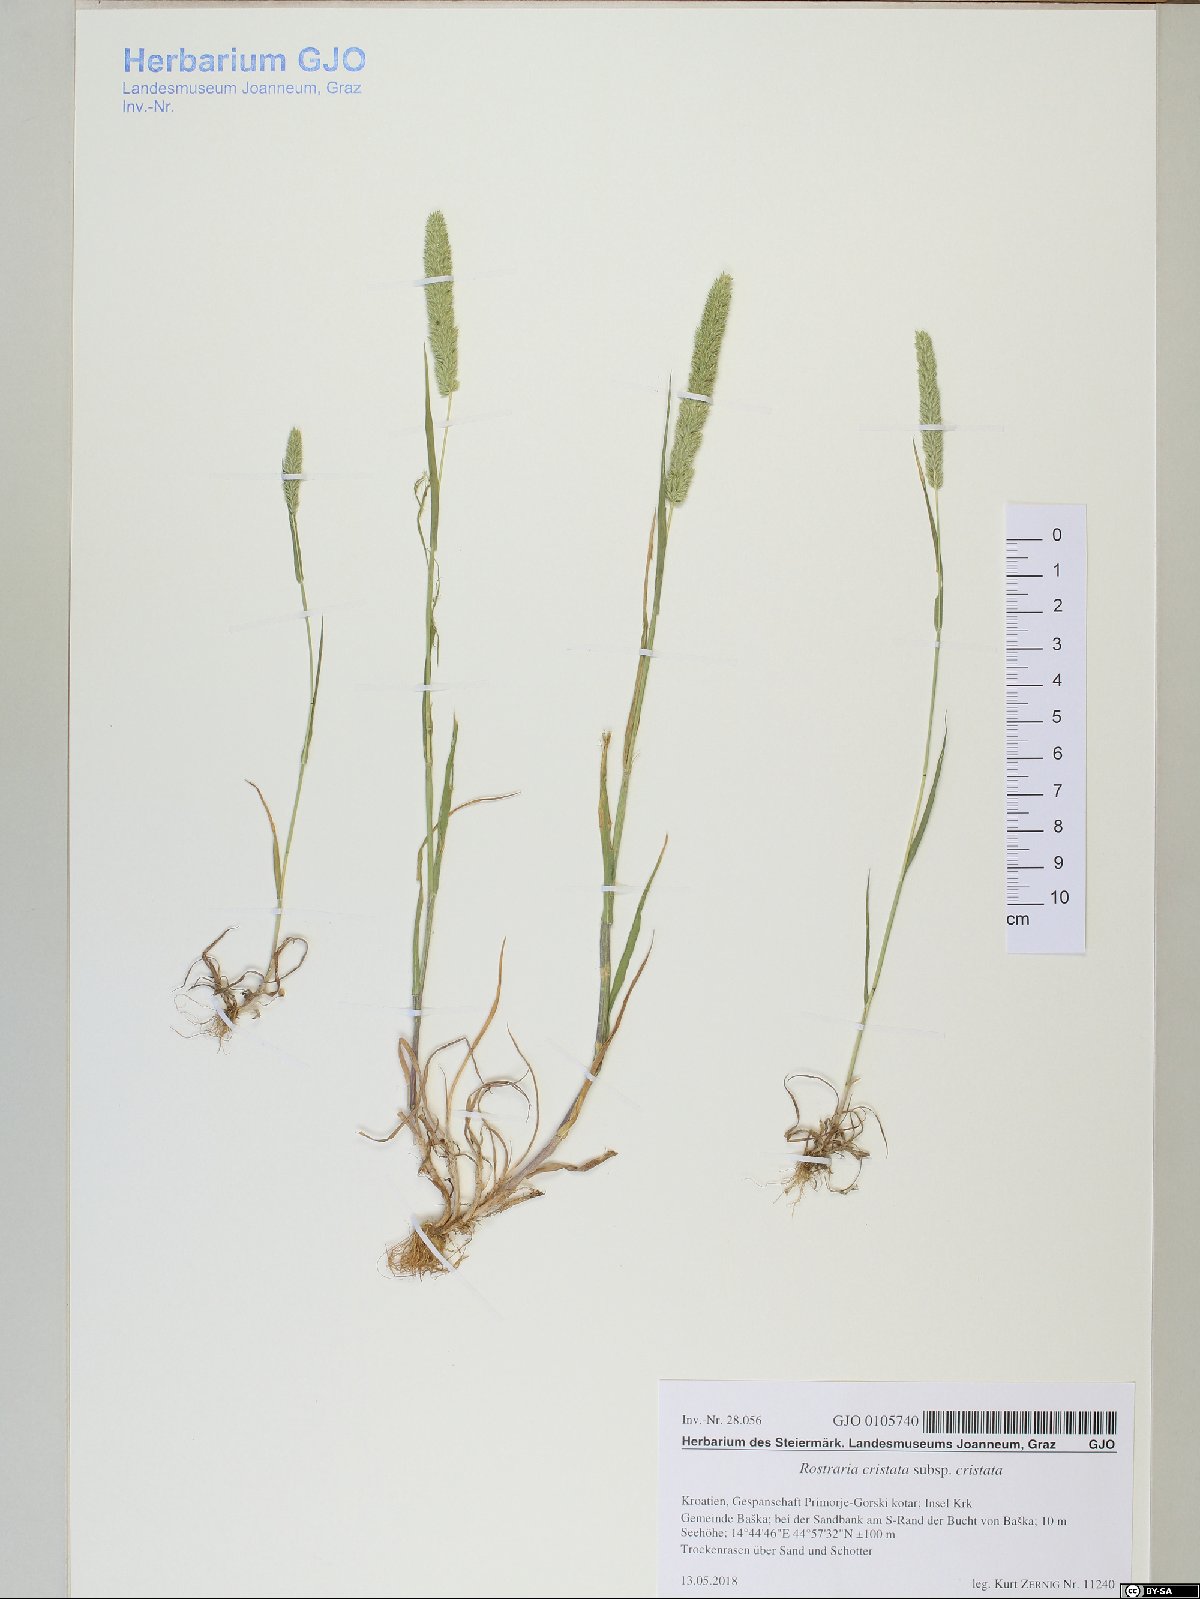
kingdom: Plantae
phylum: Tracheophyta
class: Liliopsida
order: Poales
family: Poaceae
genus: Rostraria
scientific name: Rostraria cristata
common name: Mediterranean hair-grass
